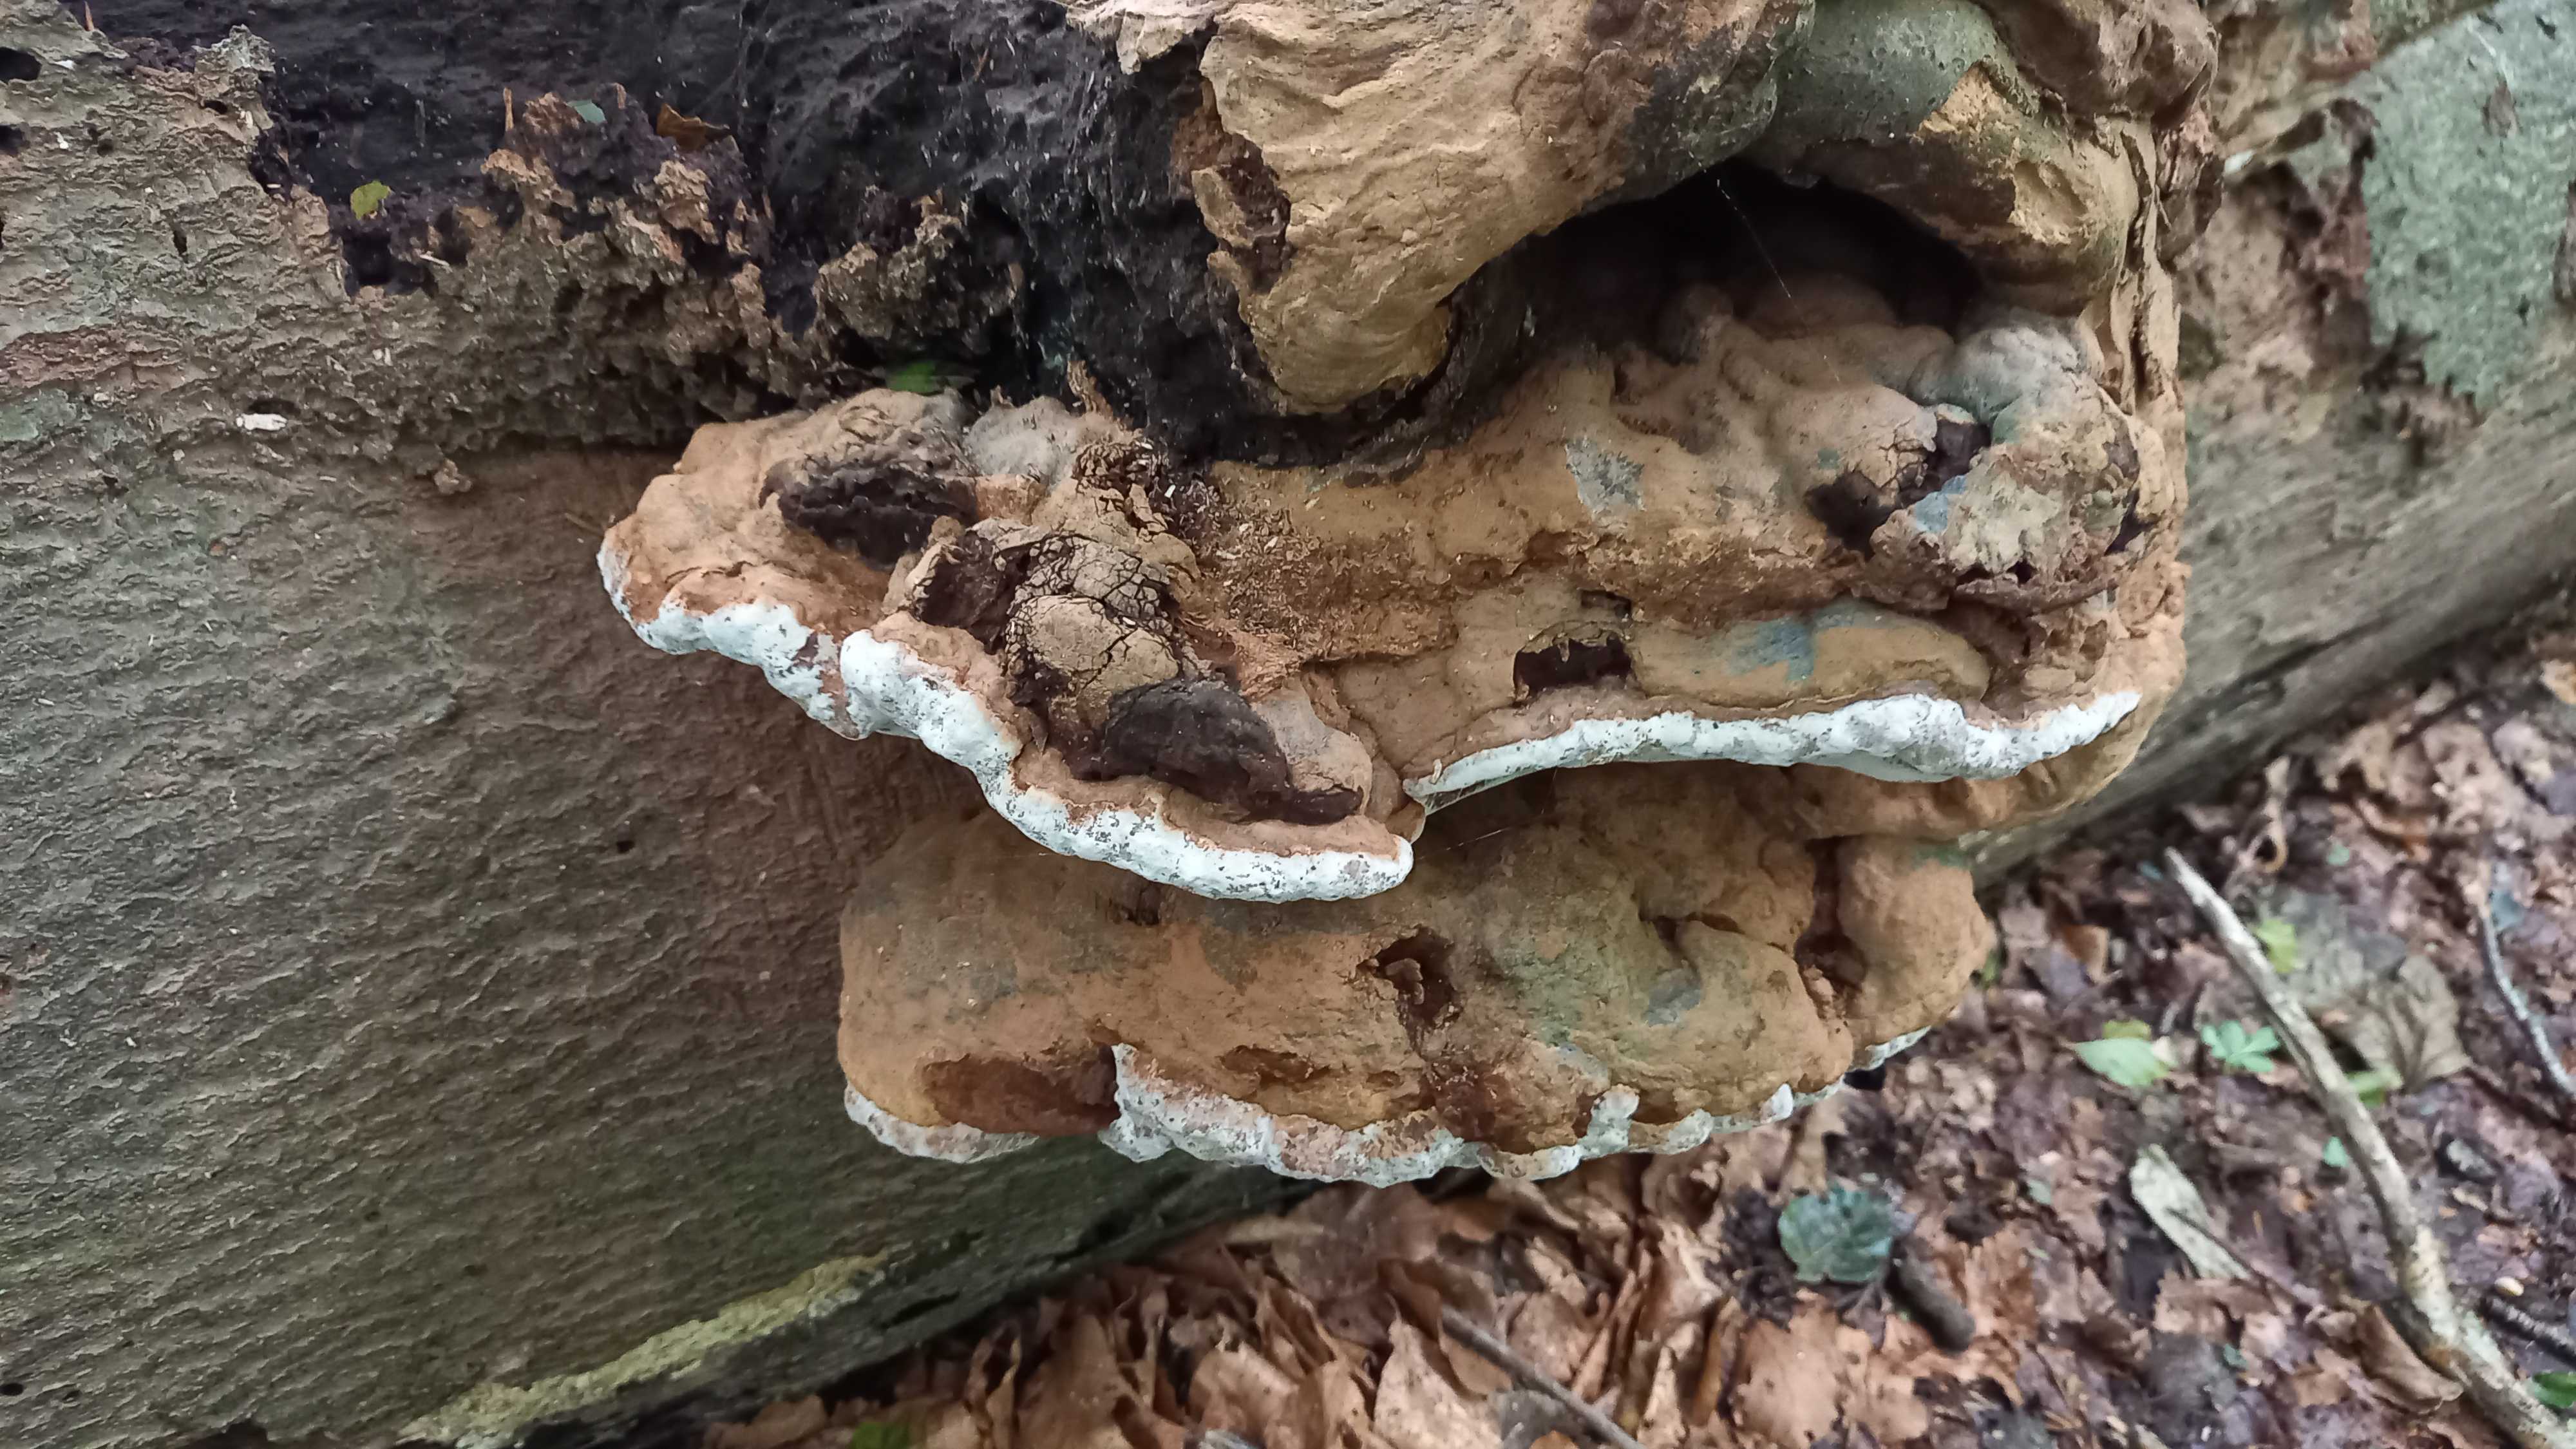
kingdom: Fungi
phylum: Basidiomycota
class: Agaricomycetes
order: Polyporales
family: Polyporaceae
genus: Ganoderma
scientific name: Ganoderma applanatum
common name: flad lakporesvamp
